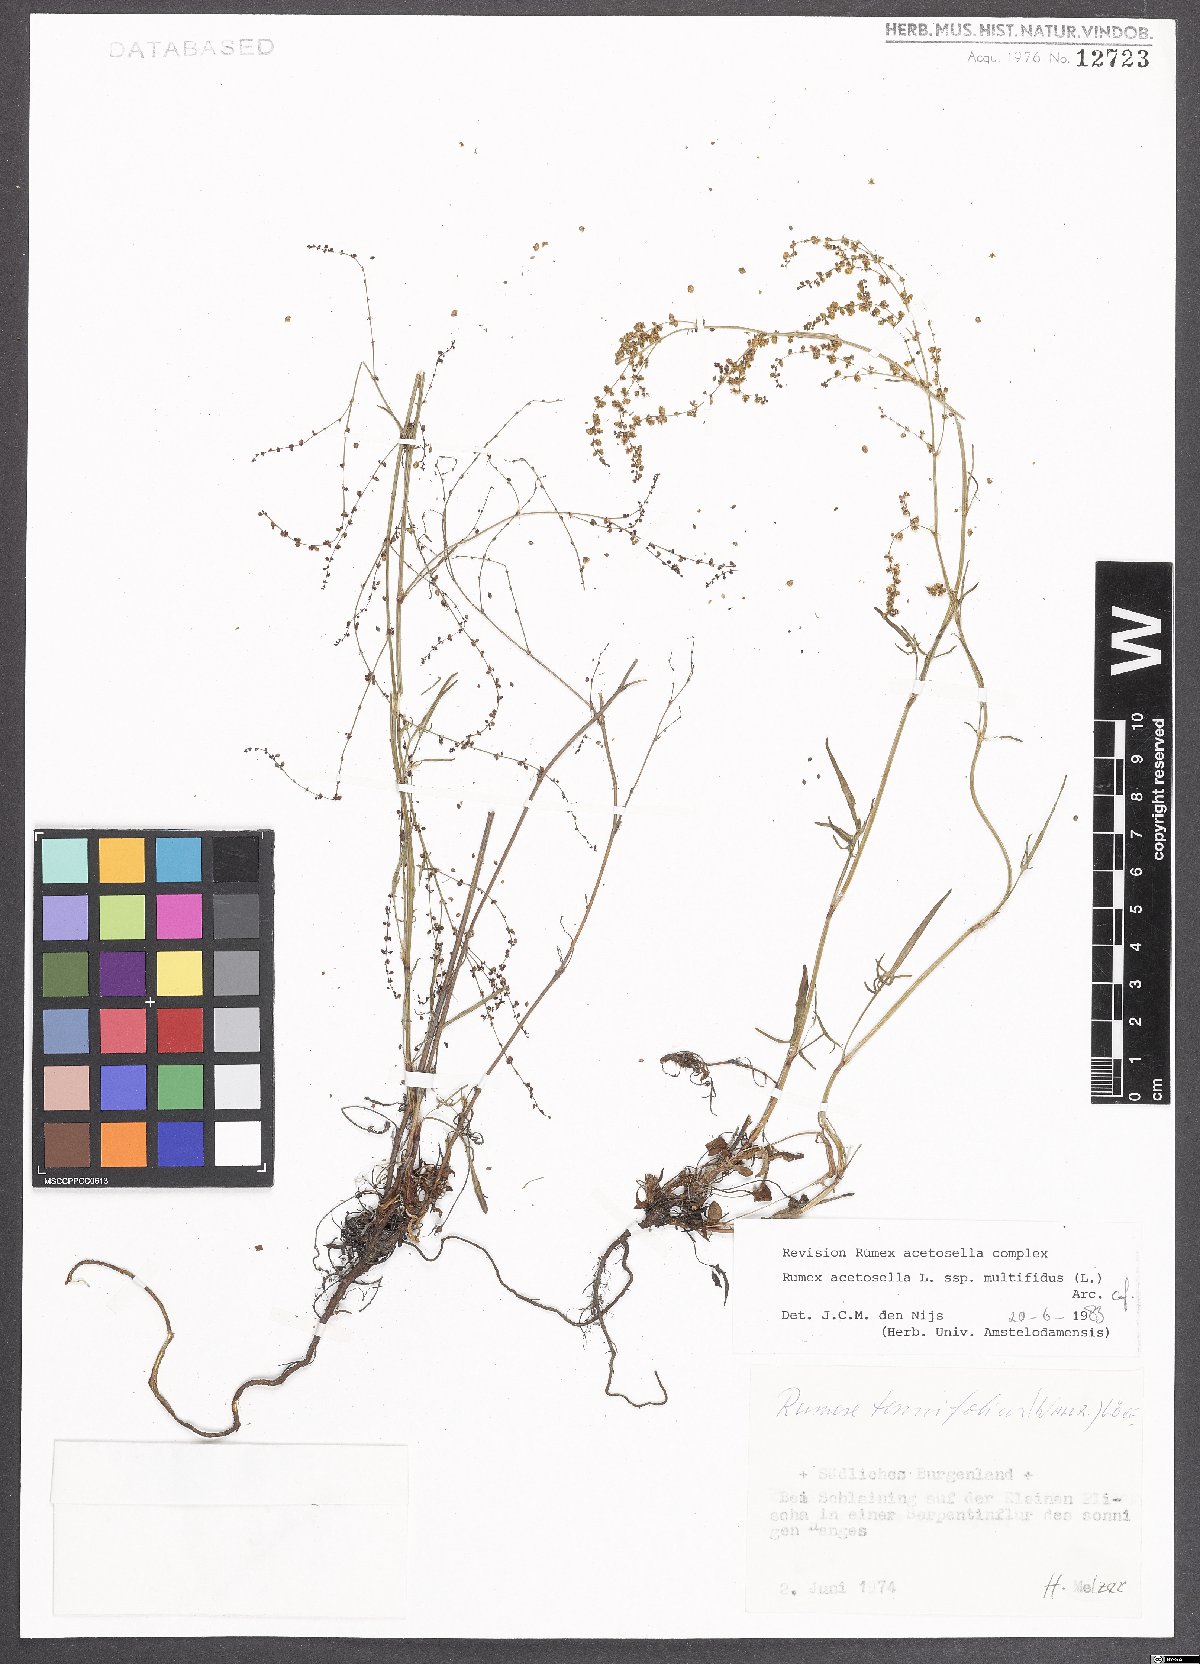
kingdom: Plantae
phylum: Tracheophyta
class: Magnoliopsida
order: Caryophyllales
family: Polygonaceae
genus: Rumex
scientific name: Rumex acetosella
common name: Common sheep sorrel
